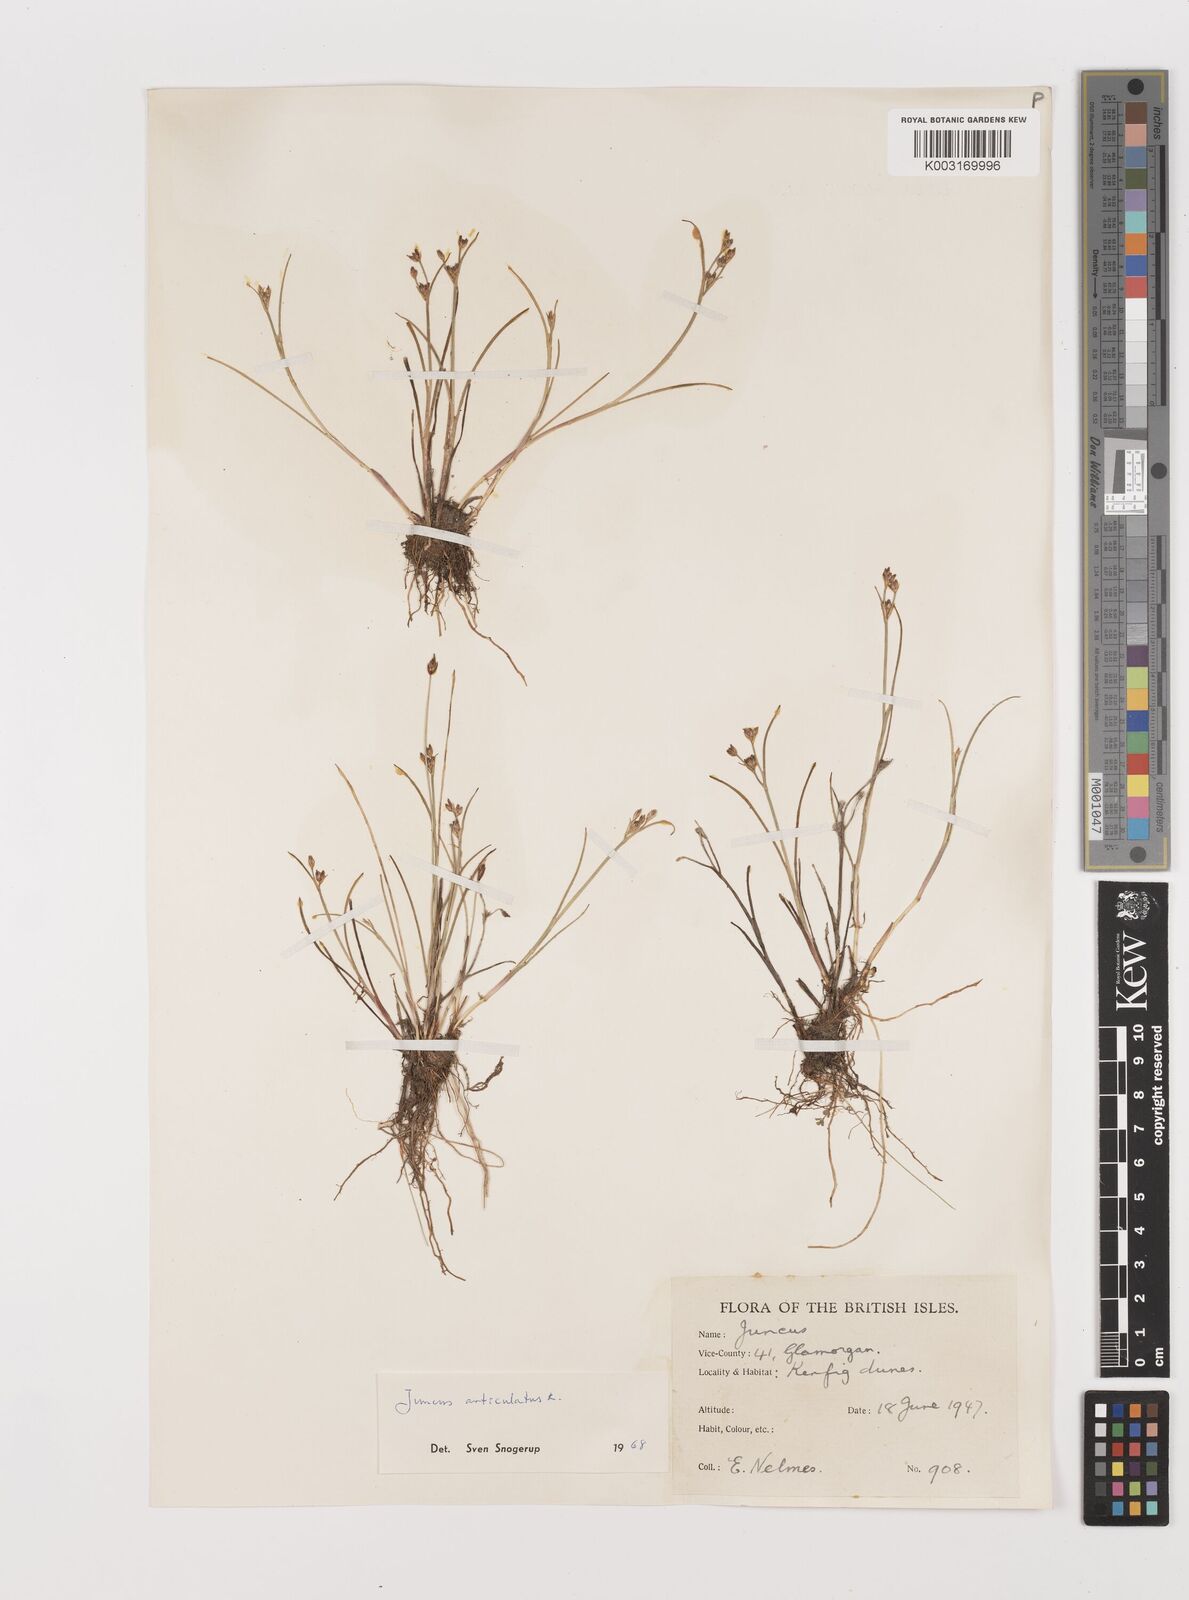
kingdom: Plantae
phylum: Tracheophyta
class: Liliopsida
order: Poales
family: Juncaceae
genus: Juncus
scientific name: Juncus articulatus
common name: Jointed rush
